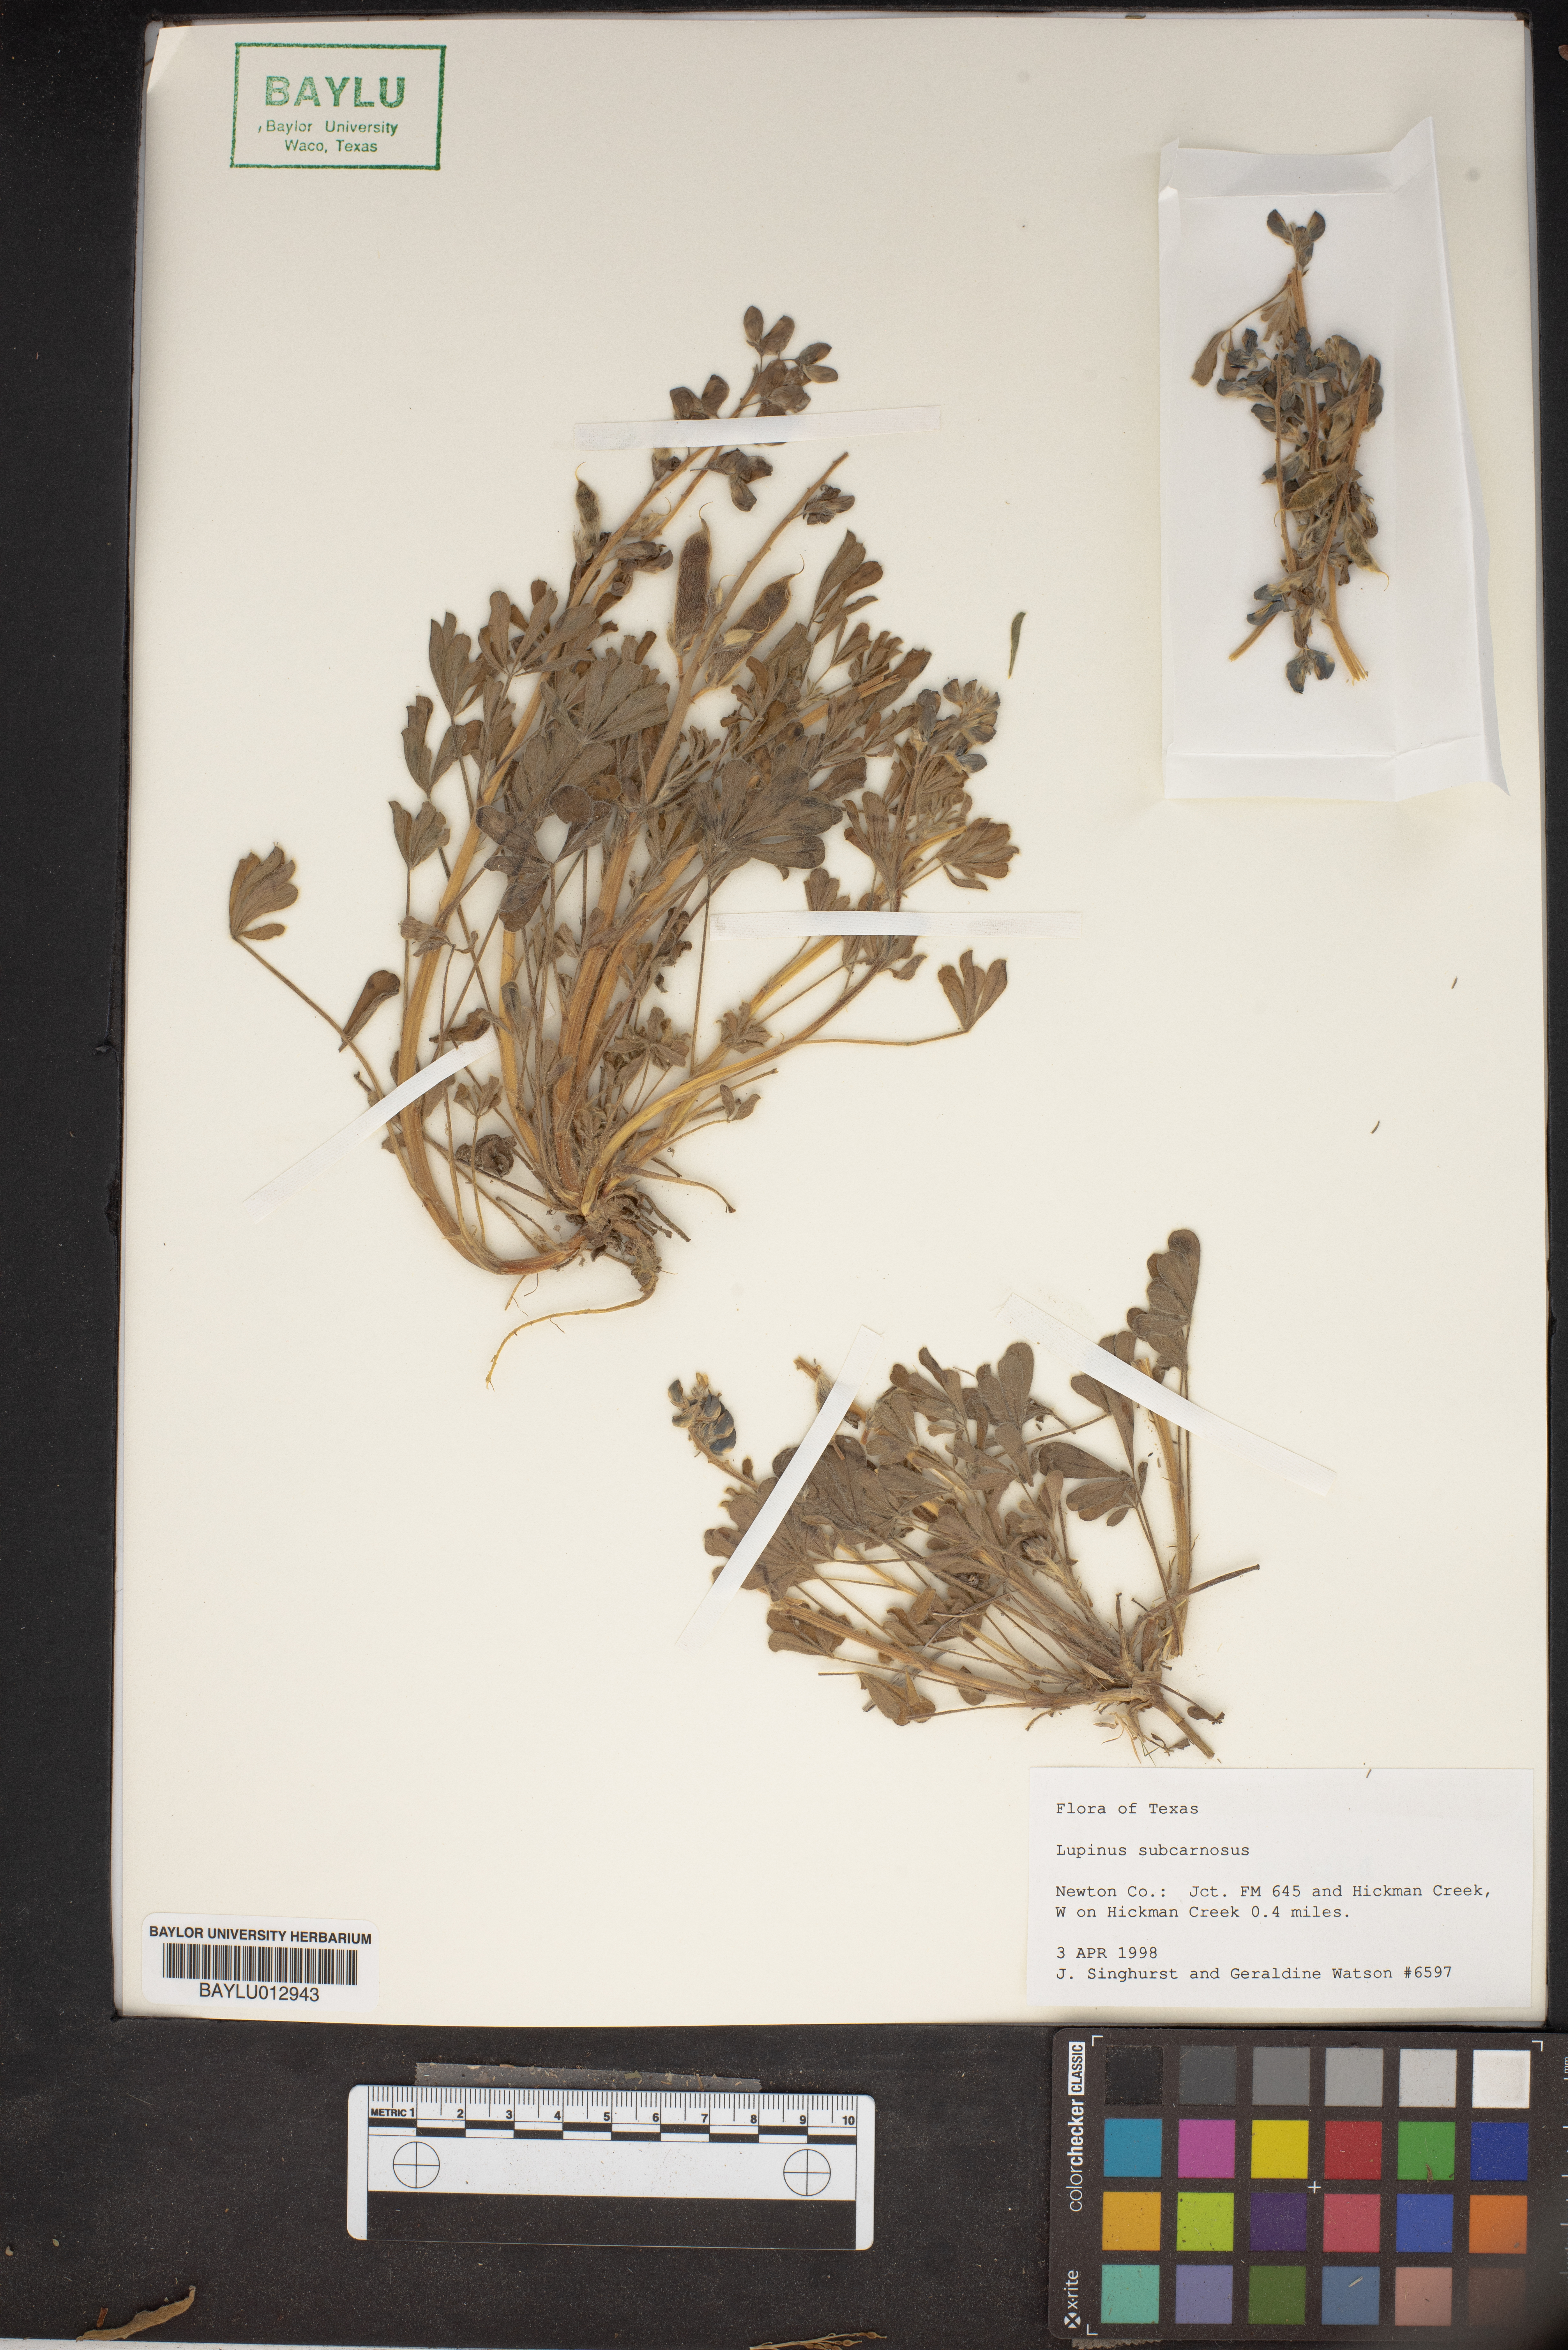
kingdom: Plantae
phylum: Tracheophyta
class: Magnoliopsida
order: Fabales
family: Fabaceae
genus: Lupinus
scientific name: Lupinus subcarnosus
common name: Texas bluebonnet
